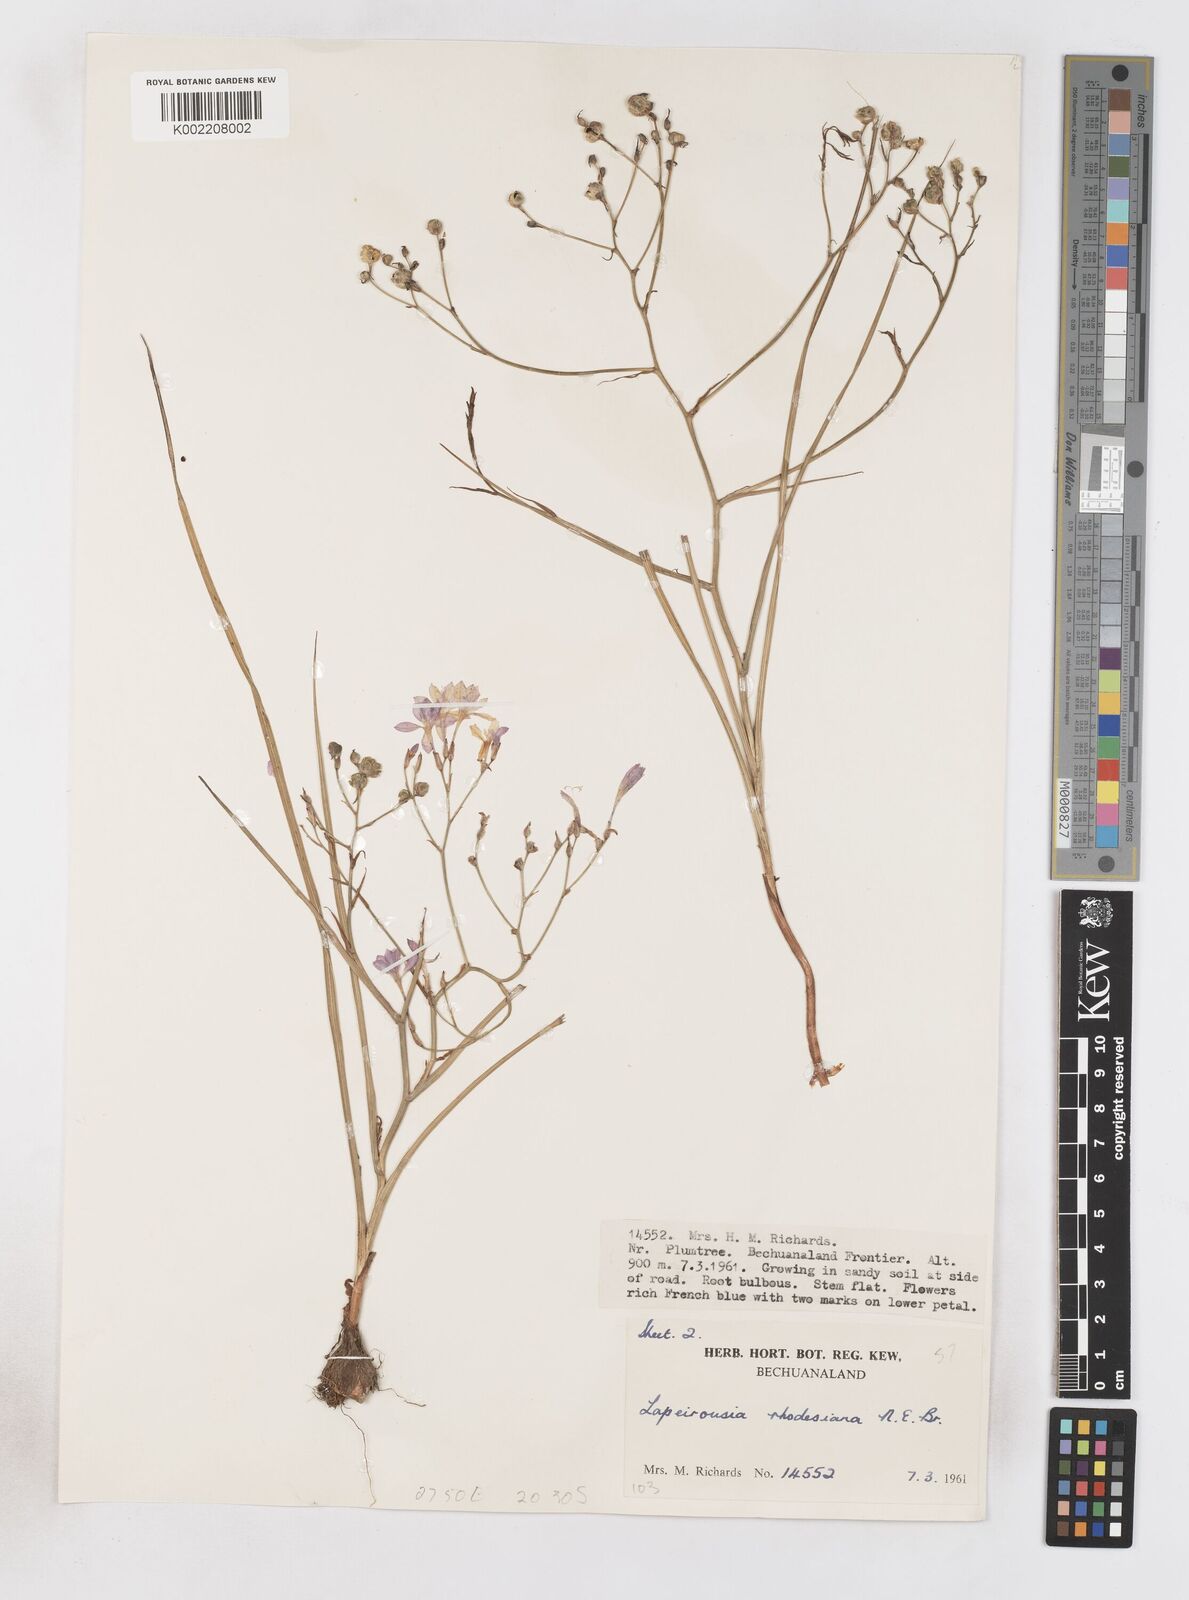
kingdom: Plantae
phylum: Tracheophyta
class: Liliopsida
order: Asparagales
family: Iridaceae
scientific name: Iridaceae
